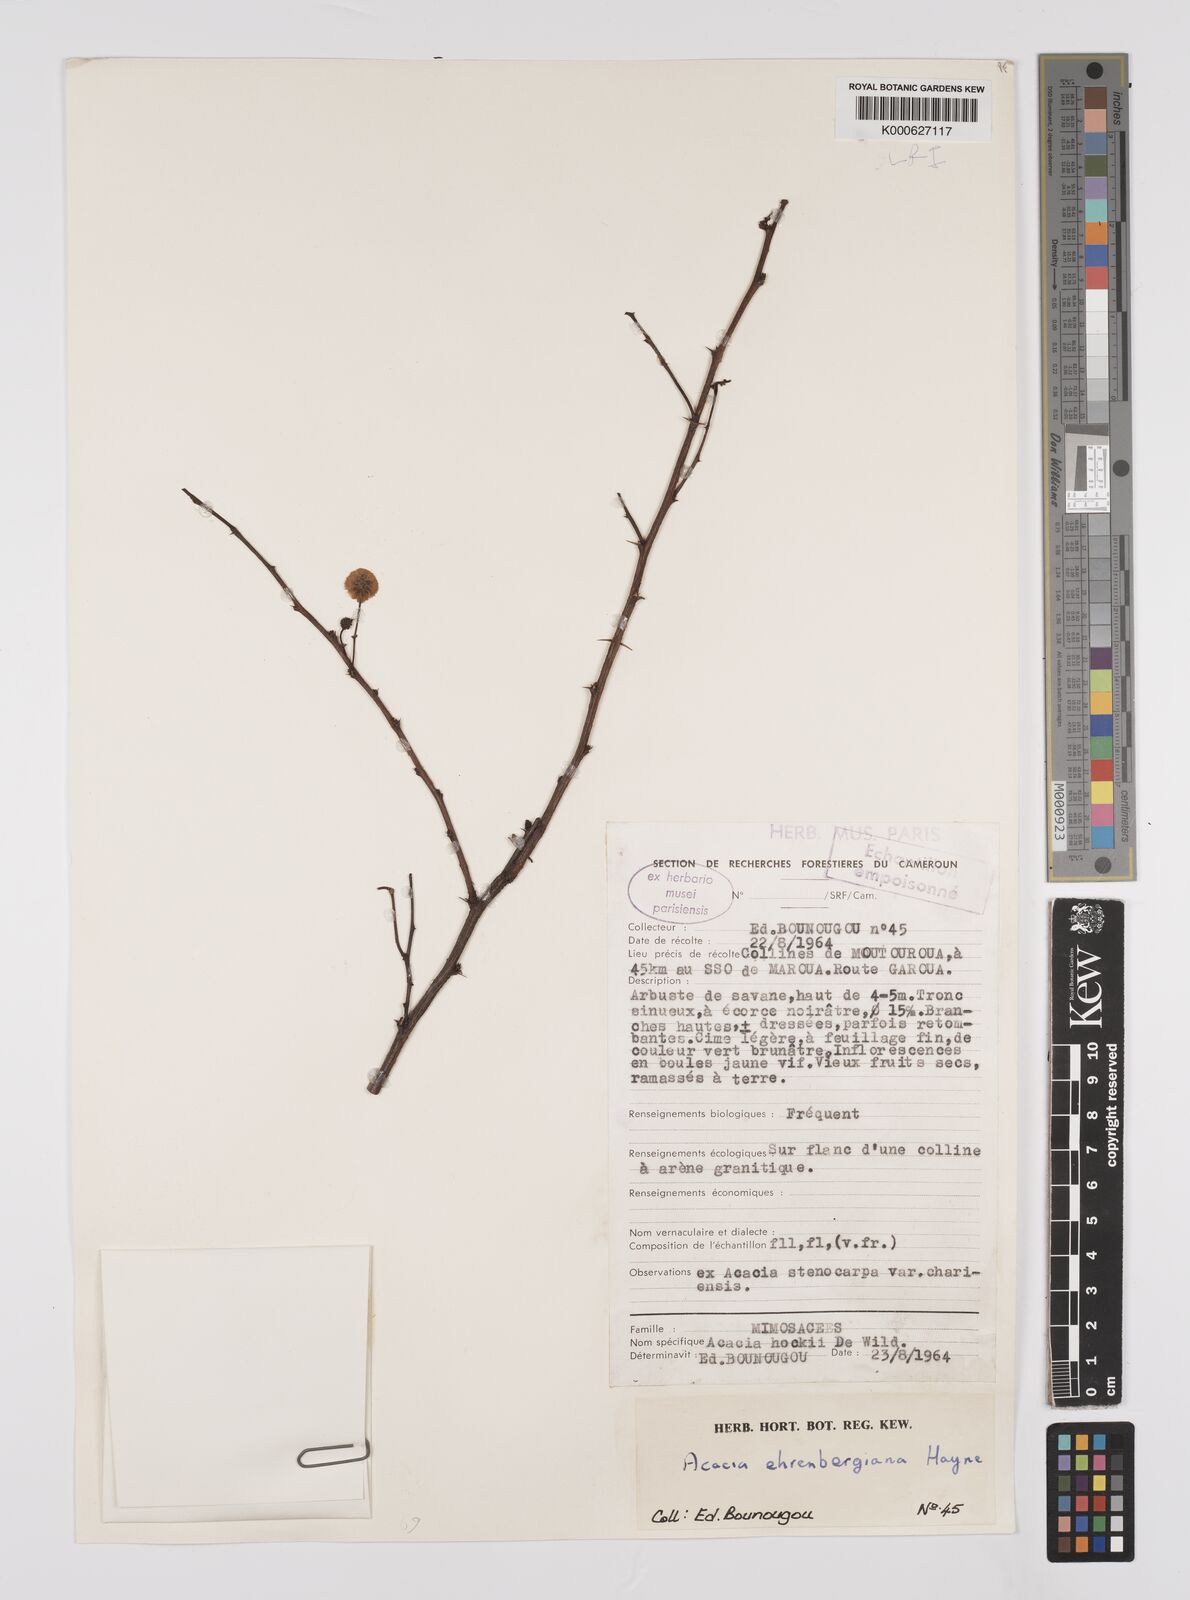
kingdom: Plantae
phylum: Tracheophyta
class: Magnoliopsida
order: Fabales
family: Fabaceae
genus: Vachellia
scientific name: Vachellia flava
